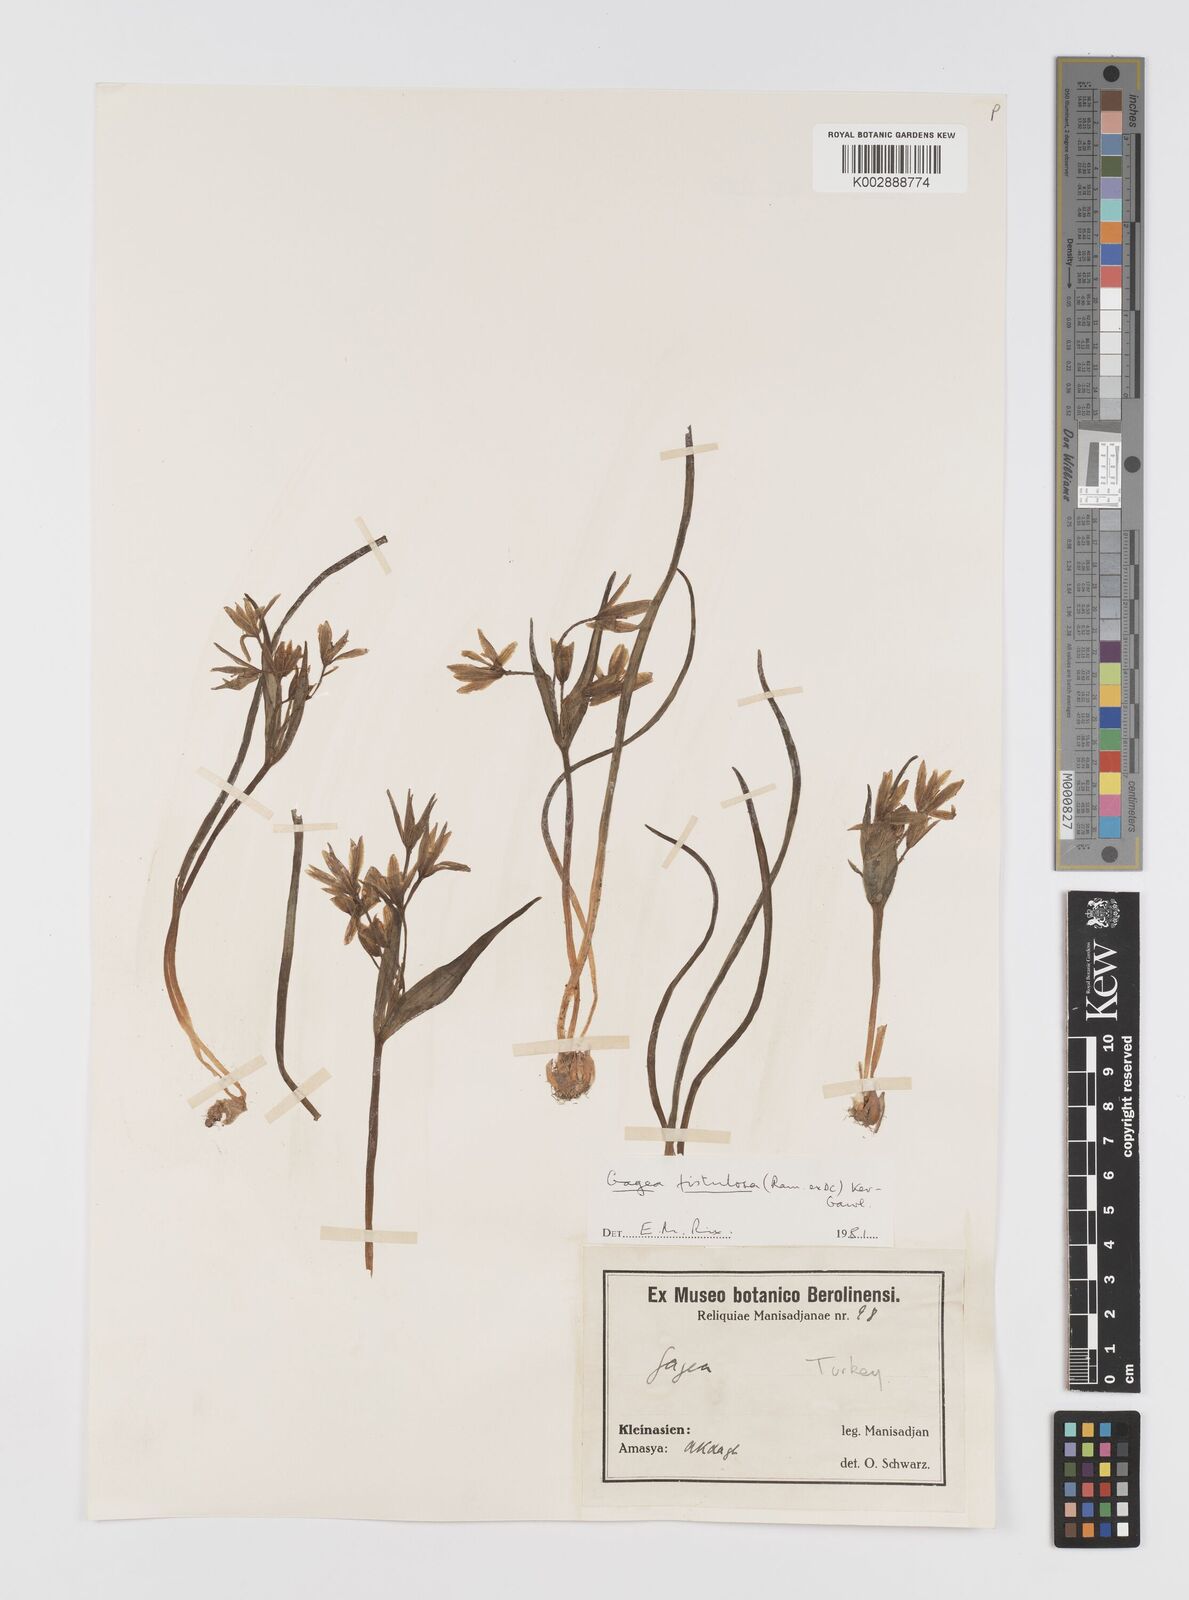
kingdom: Plantae
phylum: Tracheophyta
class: Liliopsida
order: Liliales
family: Liliaceae
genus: Gagea
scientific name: Gagea bohemica
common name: Early star-of-bethlehem
